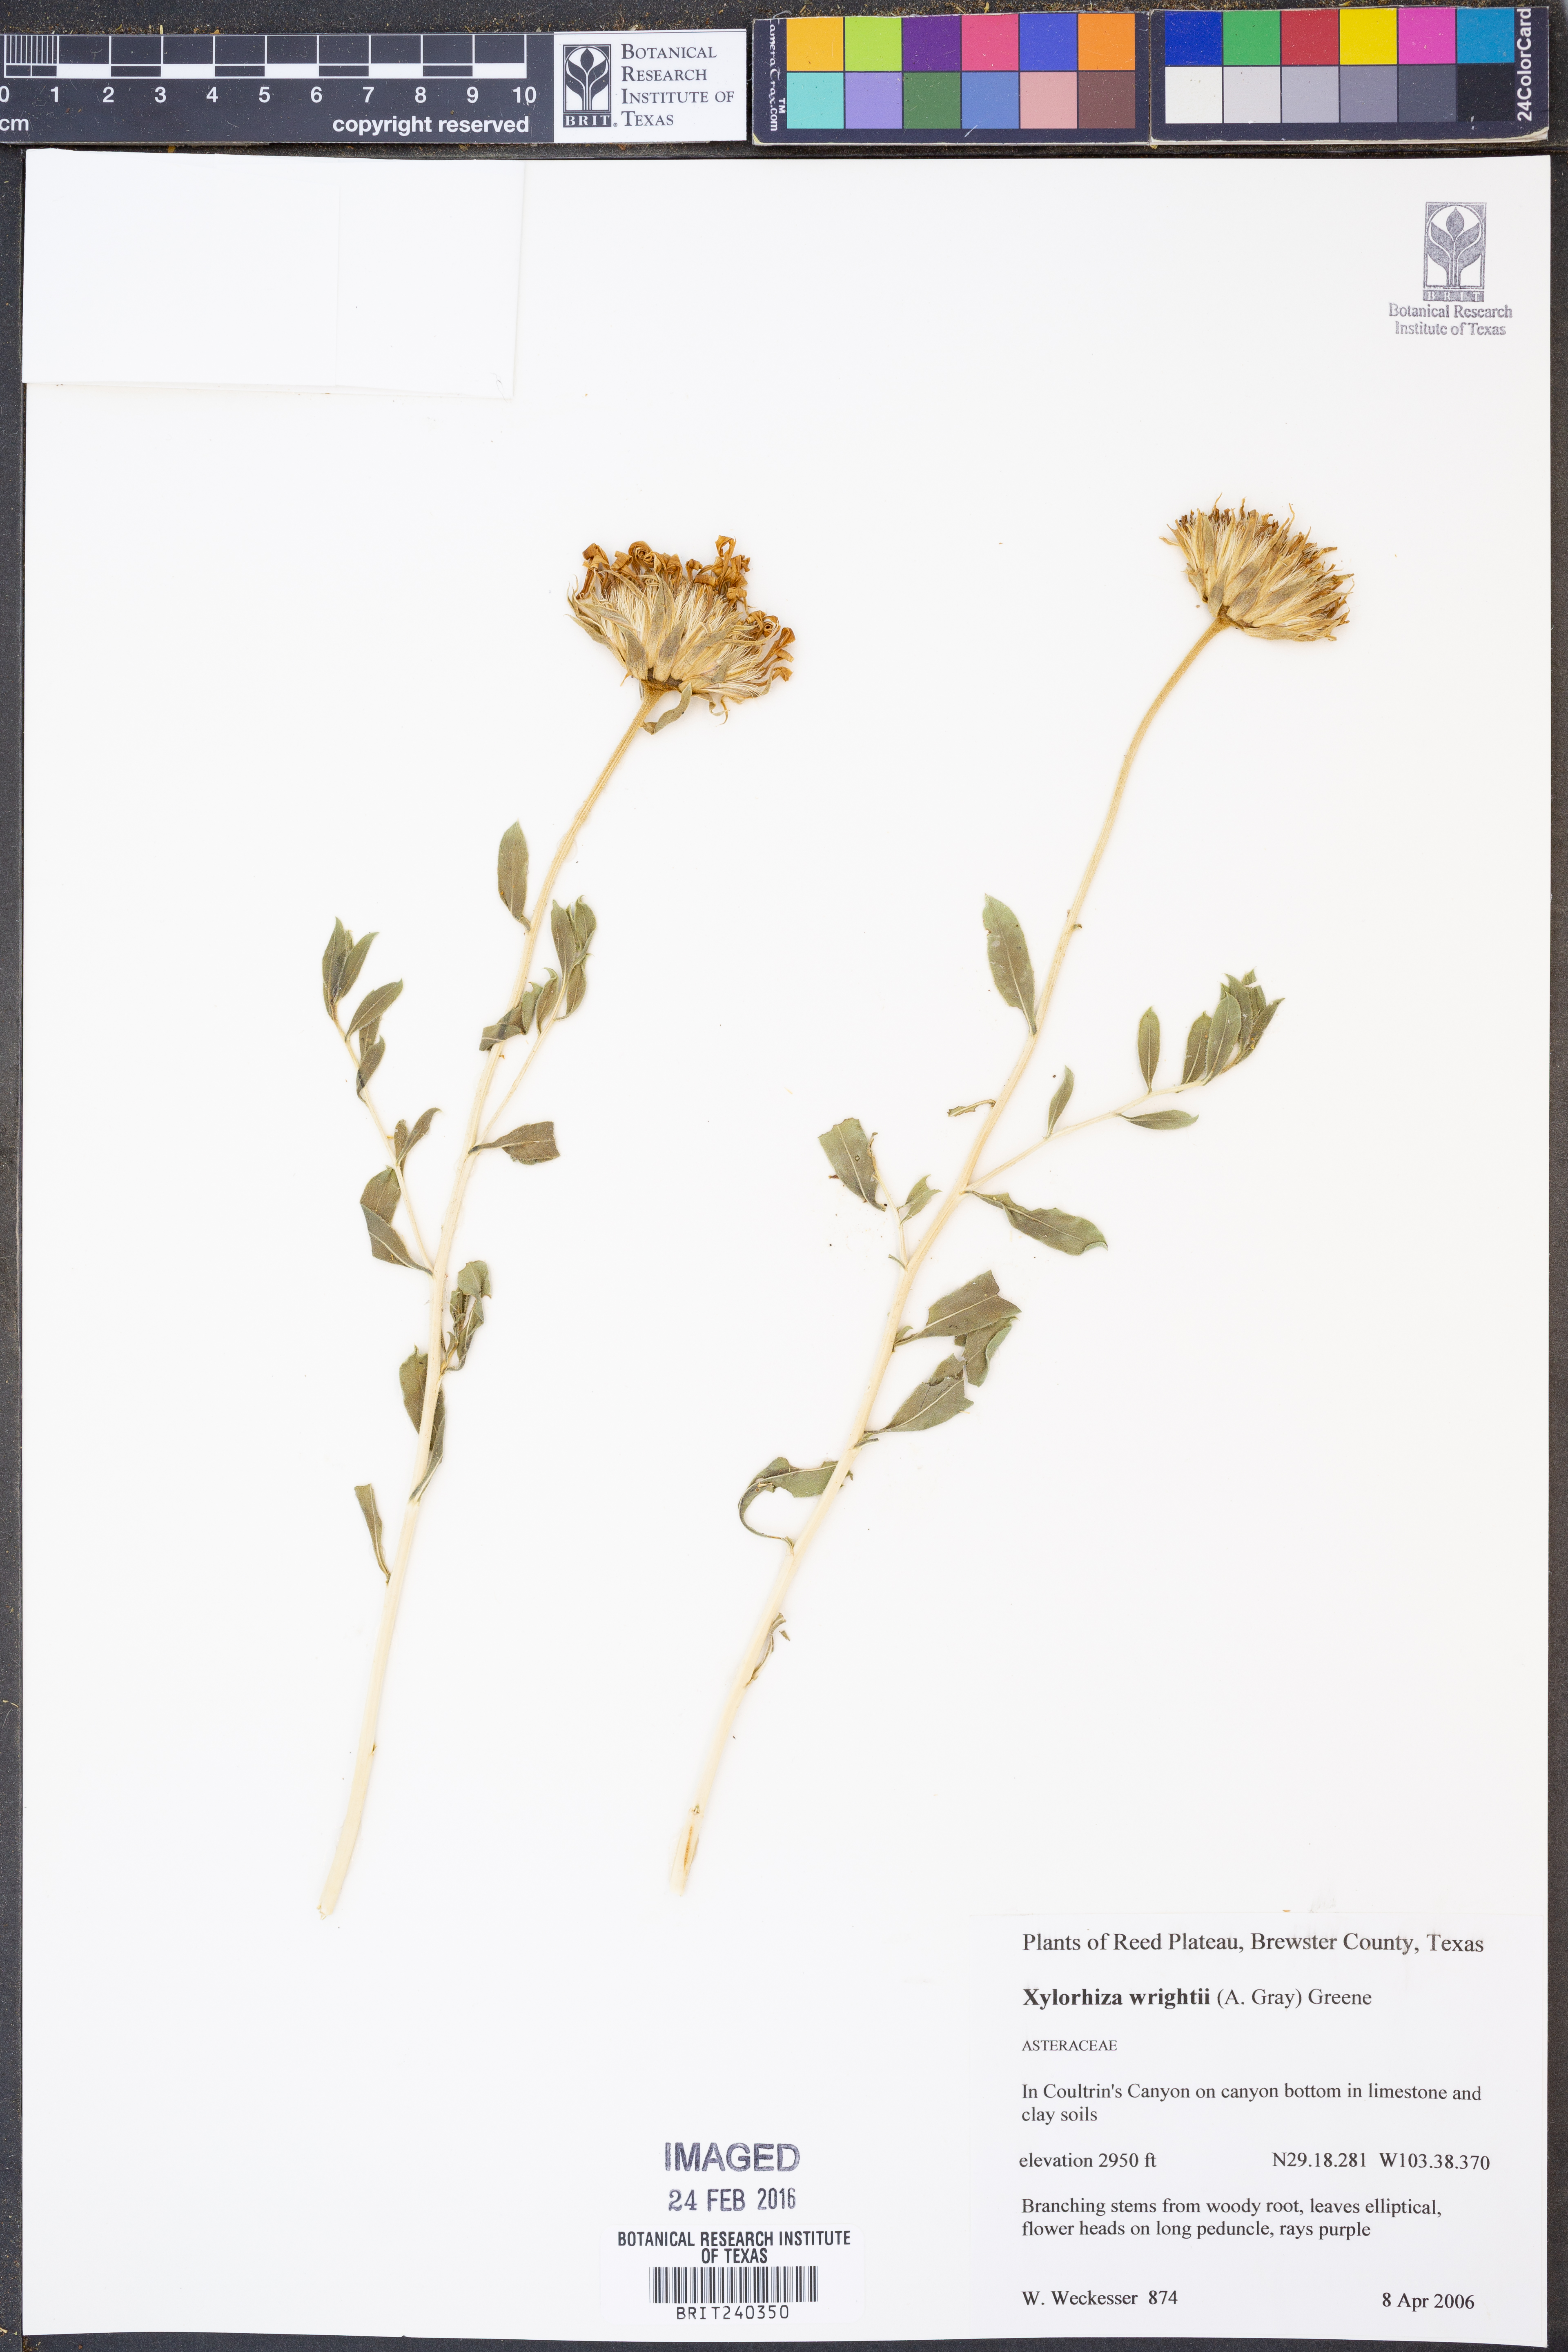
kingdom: Plantae
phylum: Tracheophyta
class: Magnoliopsida
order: Asterales
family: Asteraceae
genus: Xylorhiza
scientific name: Xylorhiza wrightii
